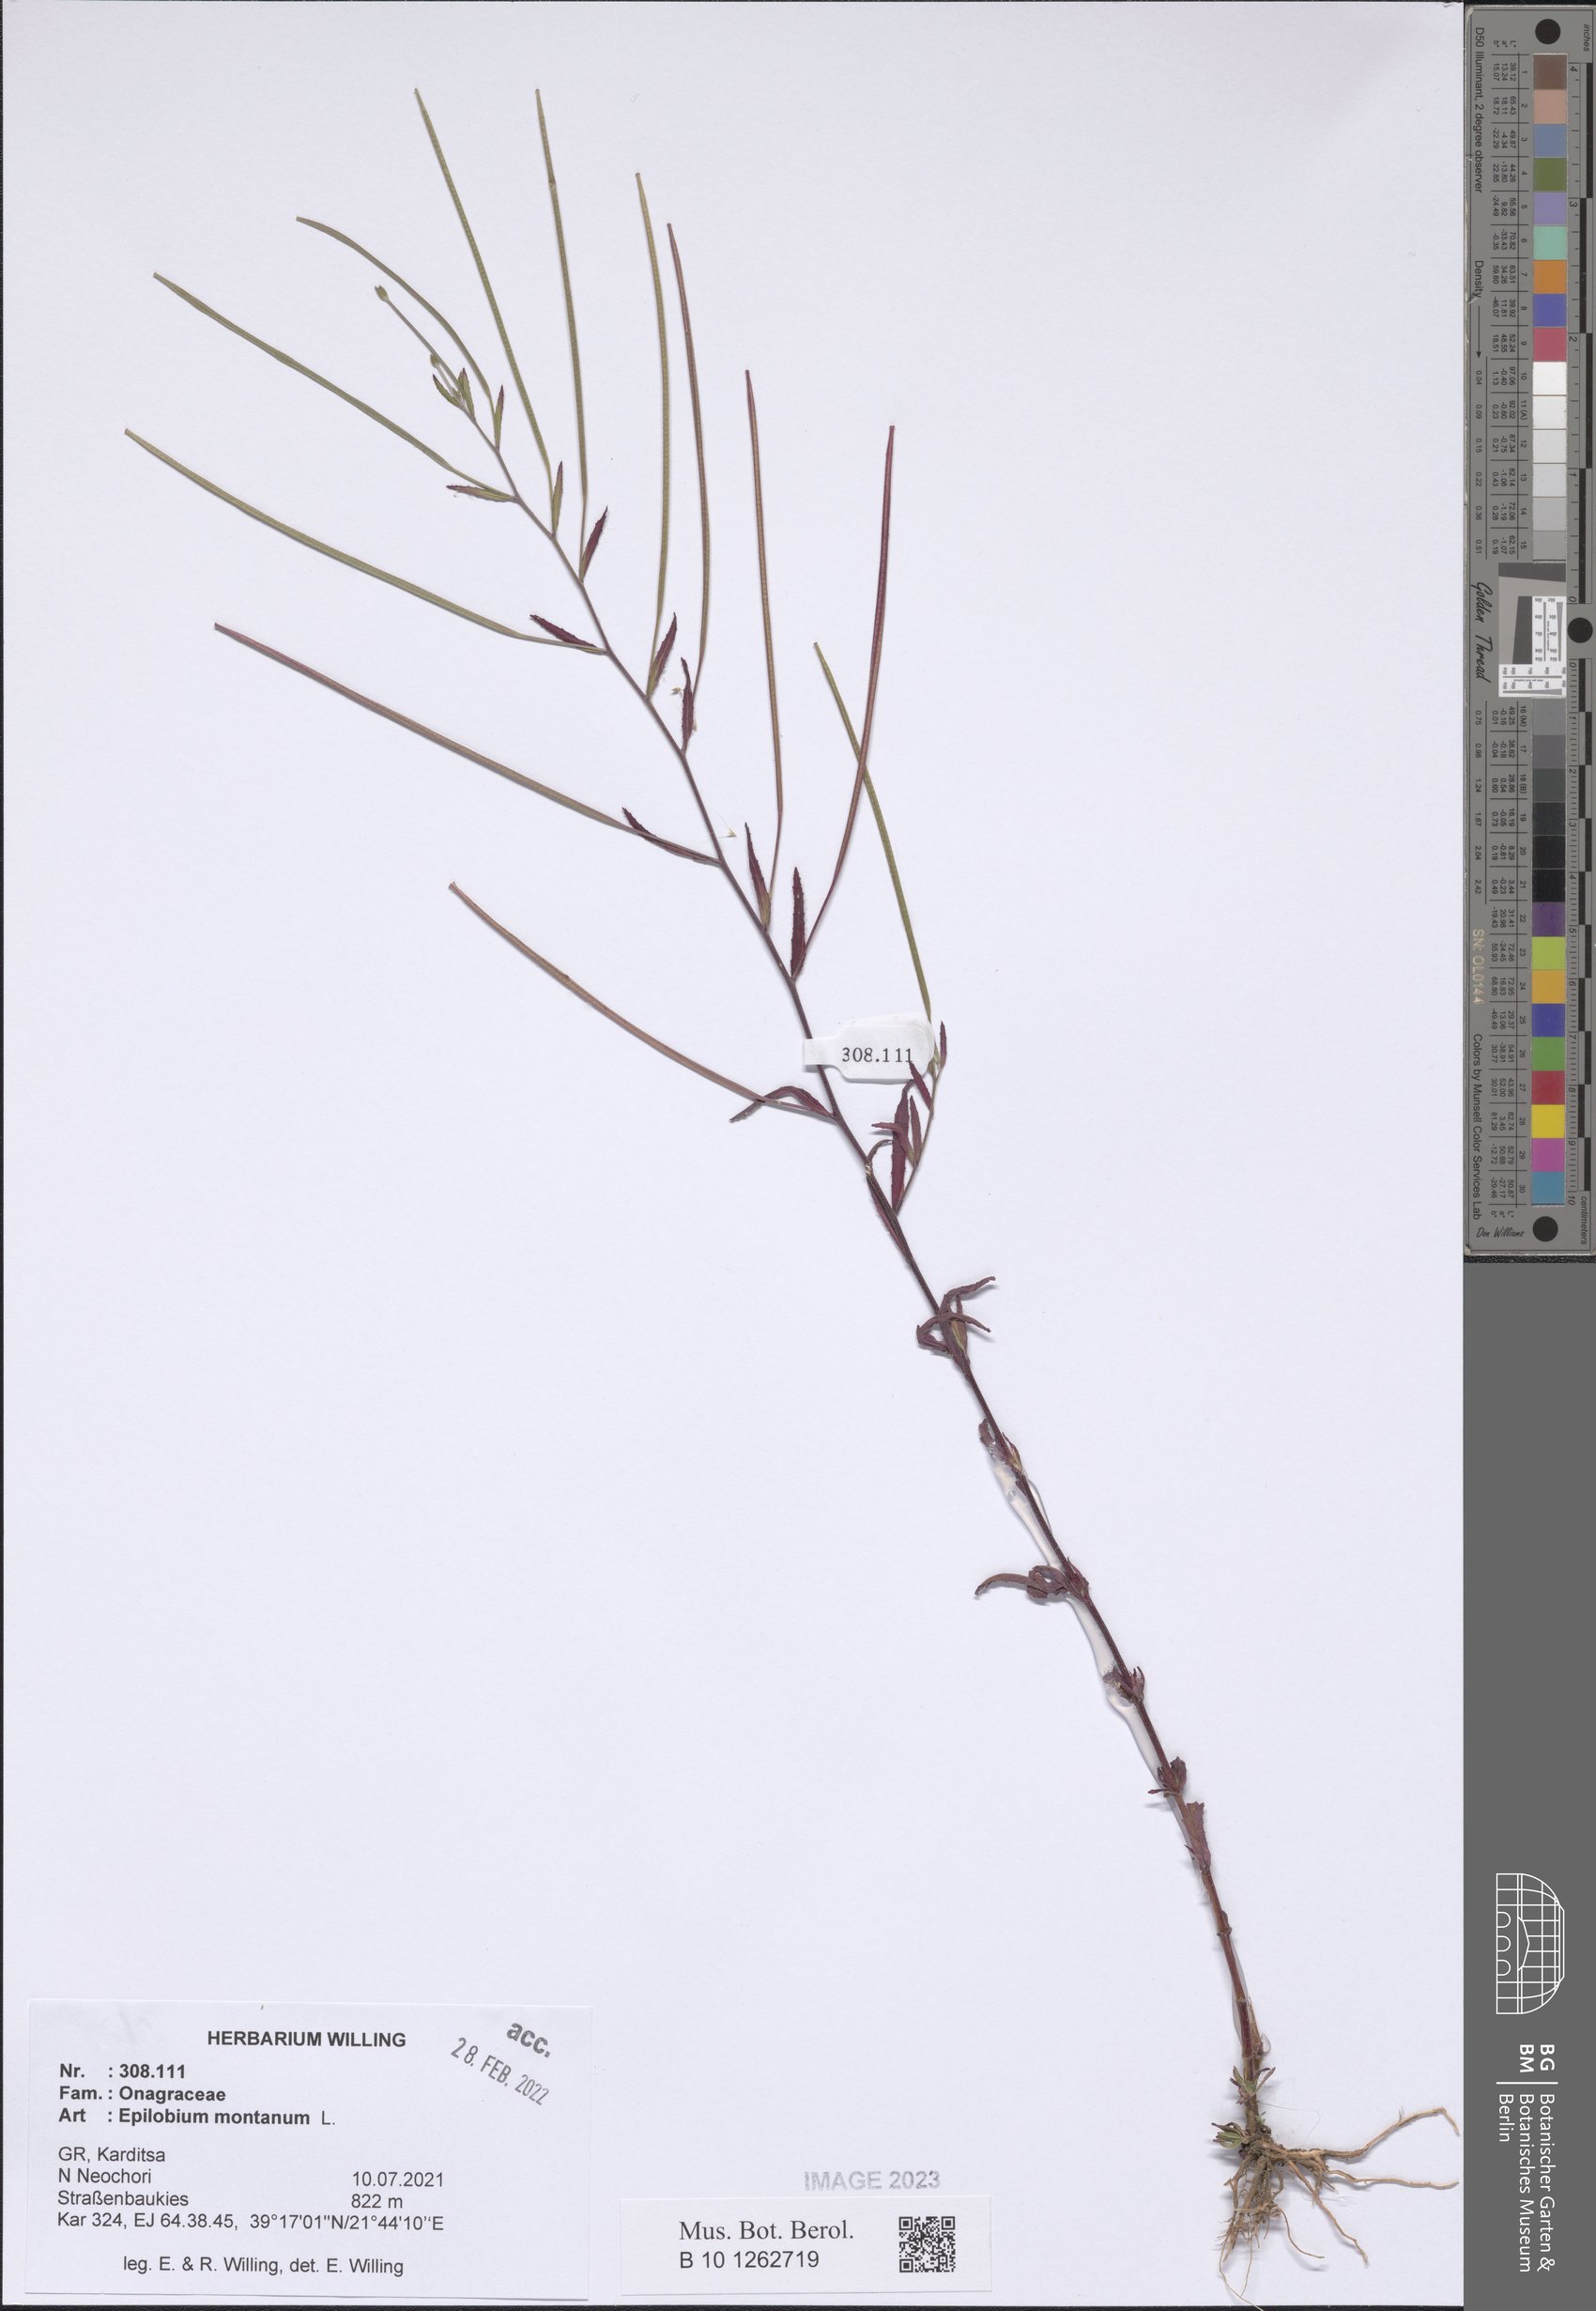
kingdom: Plantae
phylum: Tracheophyta
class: Magnoliopsida
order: Myrtales
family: Onagraceae
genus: Epilobium
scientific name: Epilobium montanum
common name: Broad-leaved willowherb
